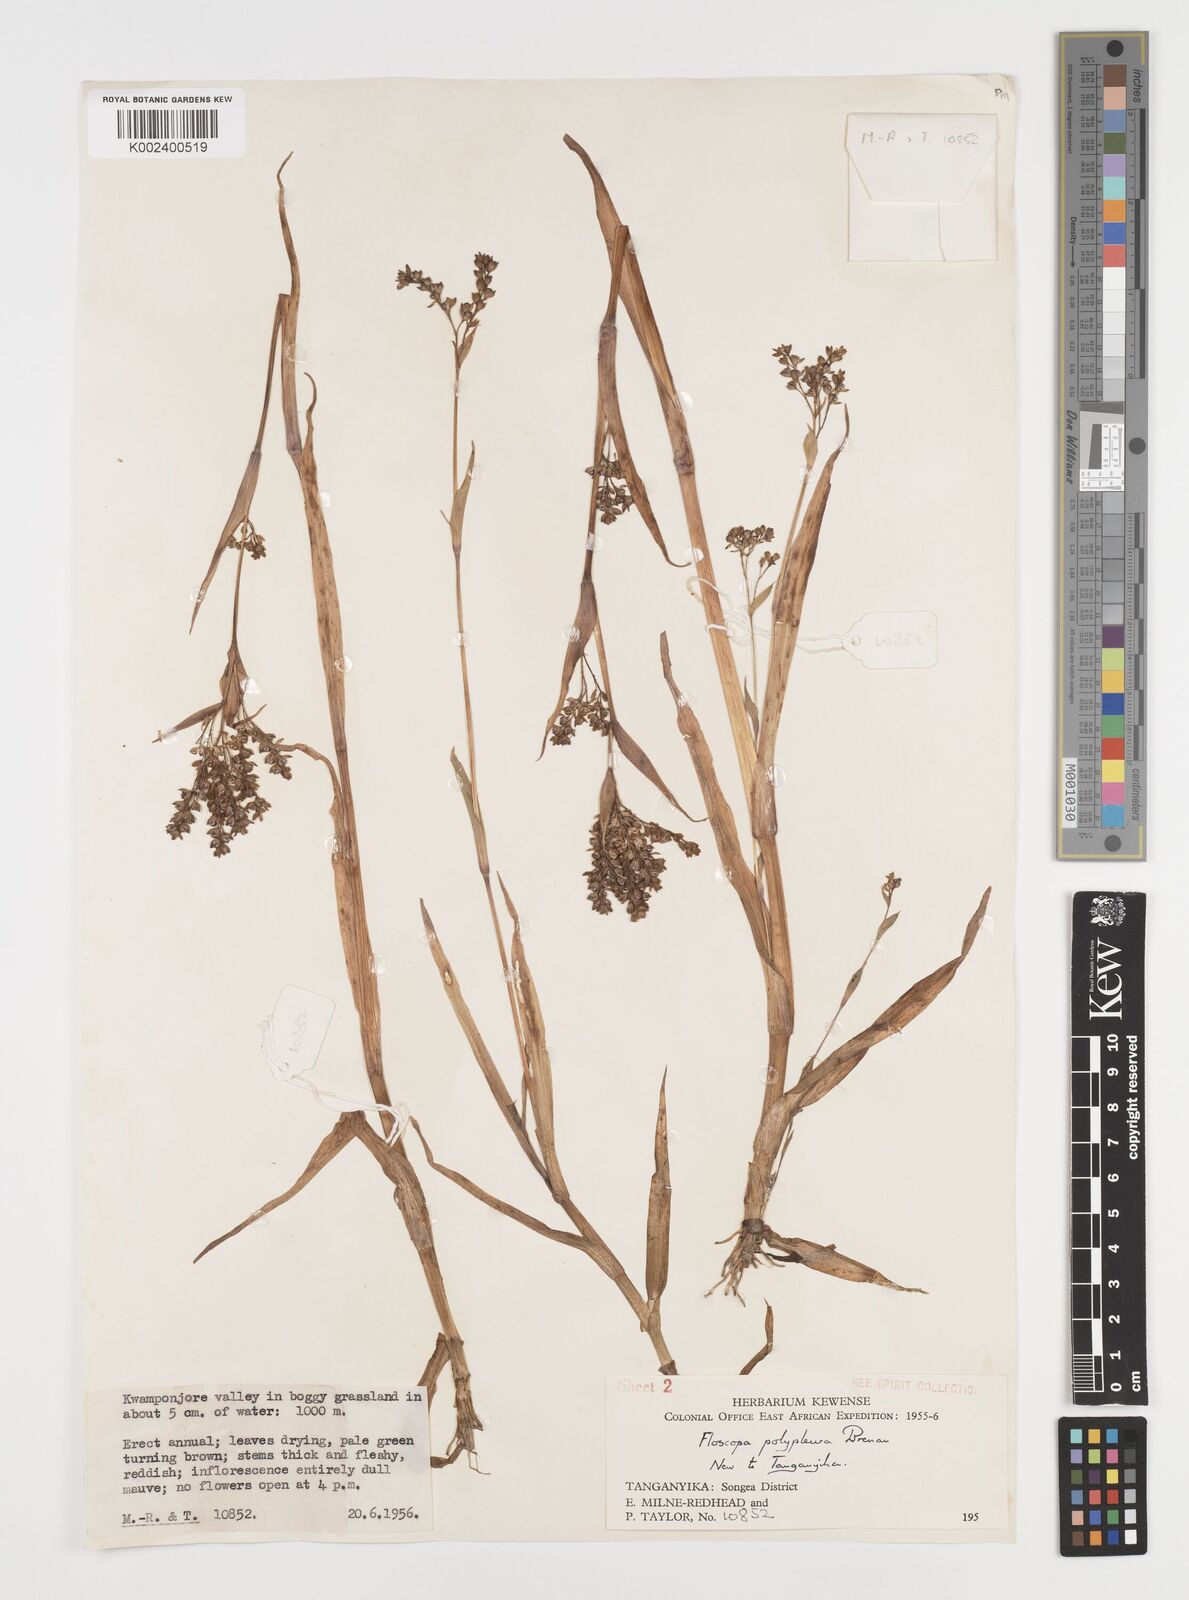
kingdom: Plantae
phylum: Tracheophyta
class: Liliopsida
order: Commelinales
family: Commelinaceae
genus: Floscopa
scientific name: Floscopa polypleura
